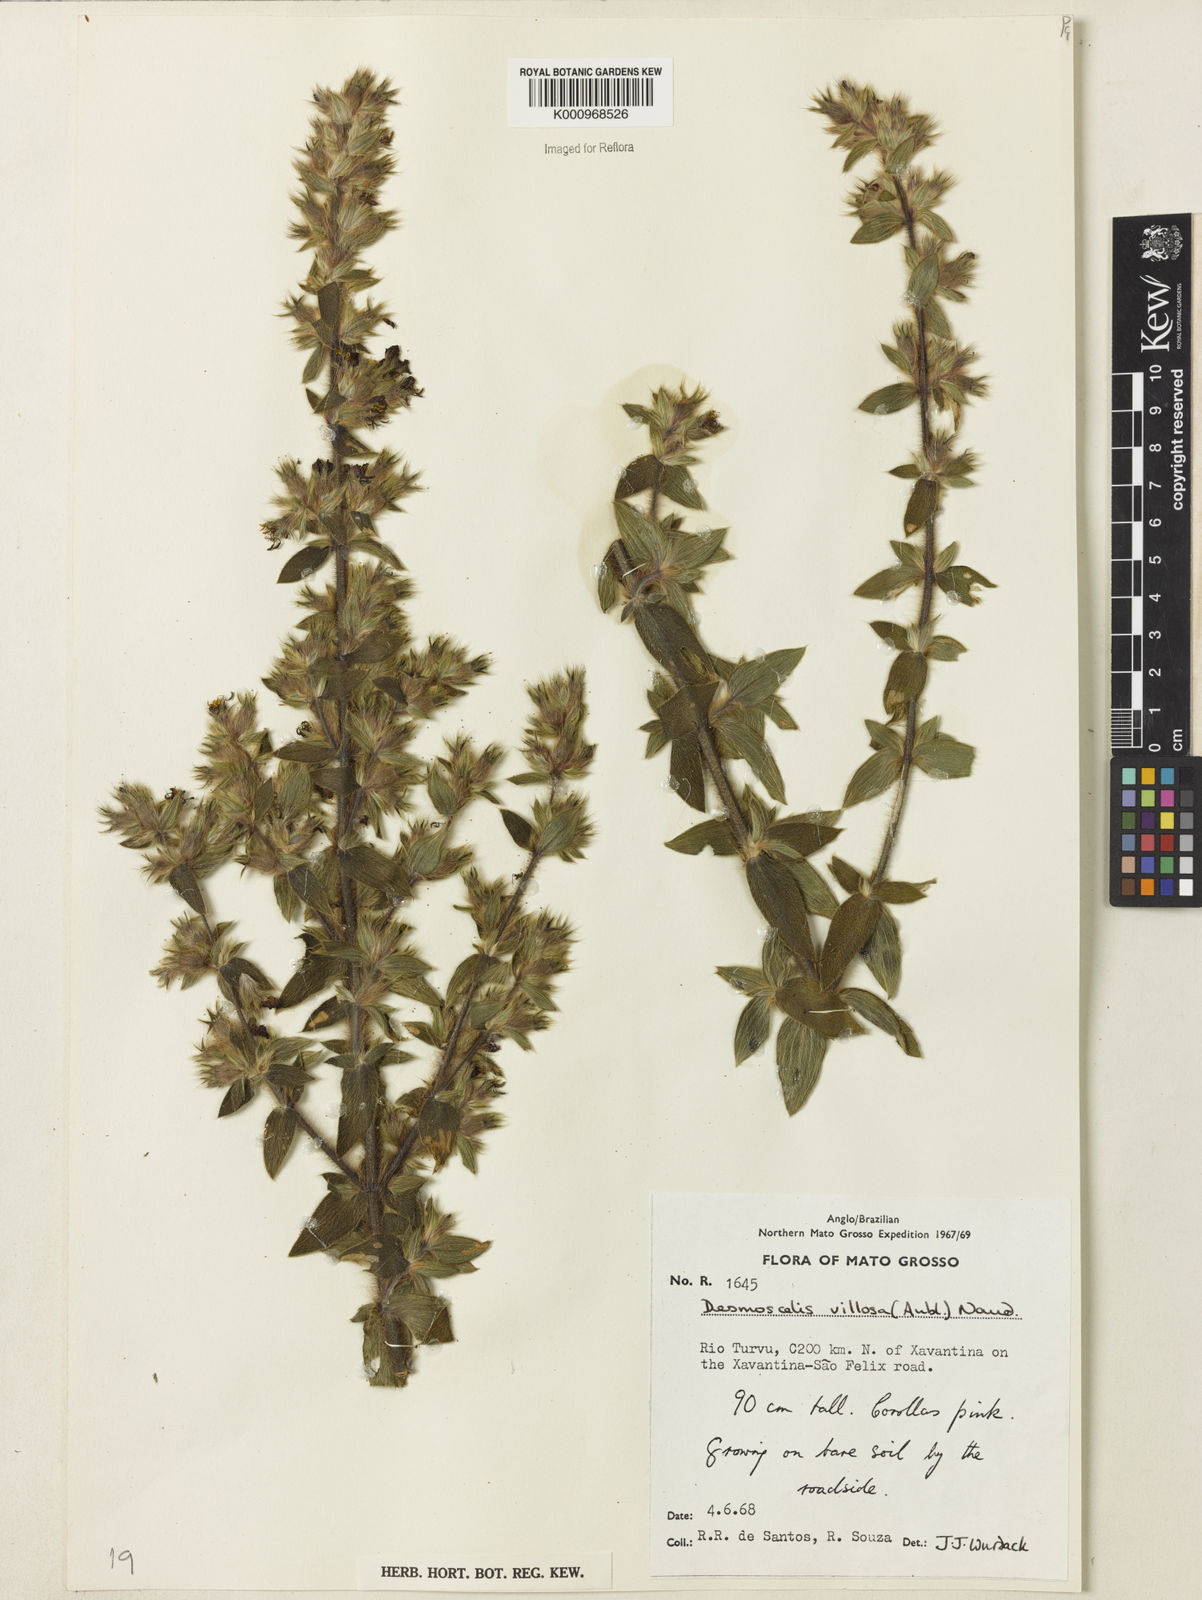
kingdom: Plantae
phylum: Tracheophyta
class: Magnoliopsida
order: Myrtales
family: Melastomataceae
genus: Desmoscelis
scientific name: Desmoscelis villosa
